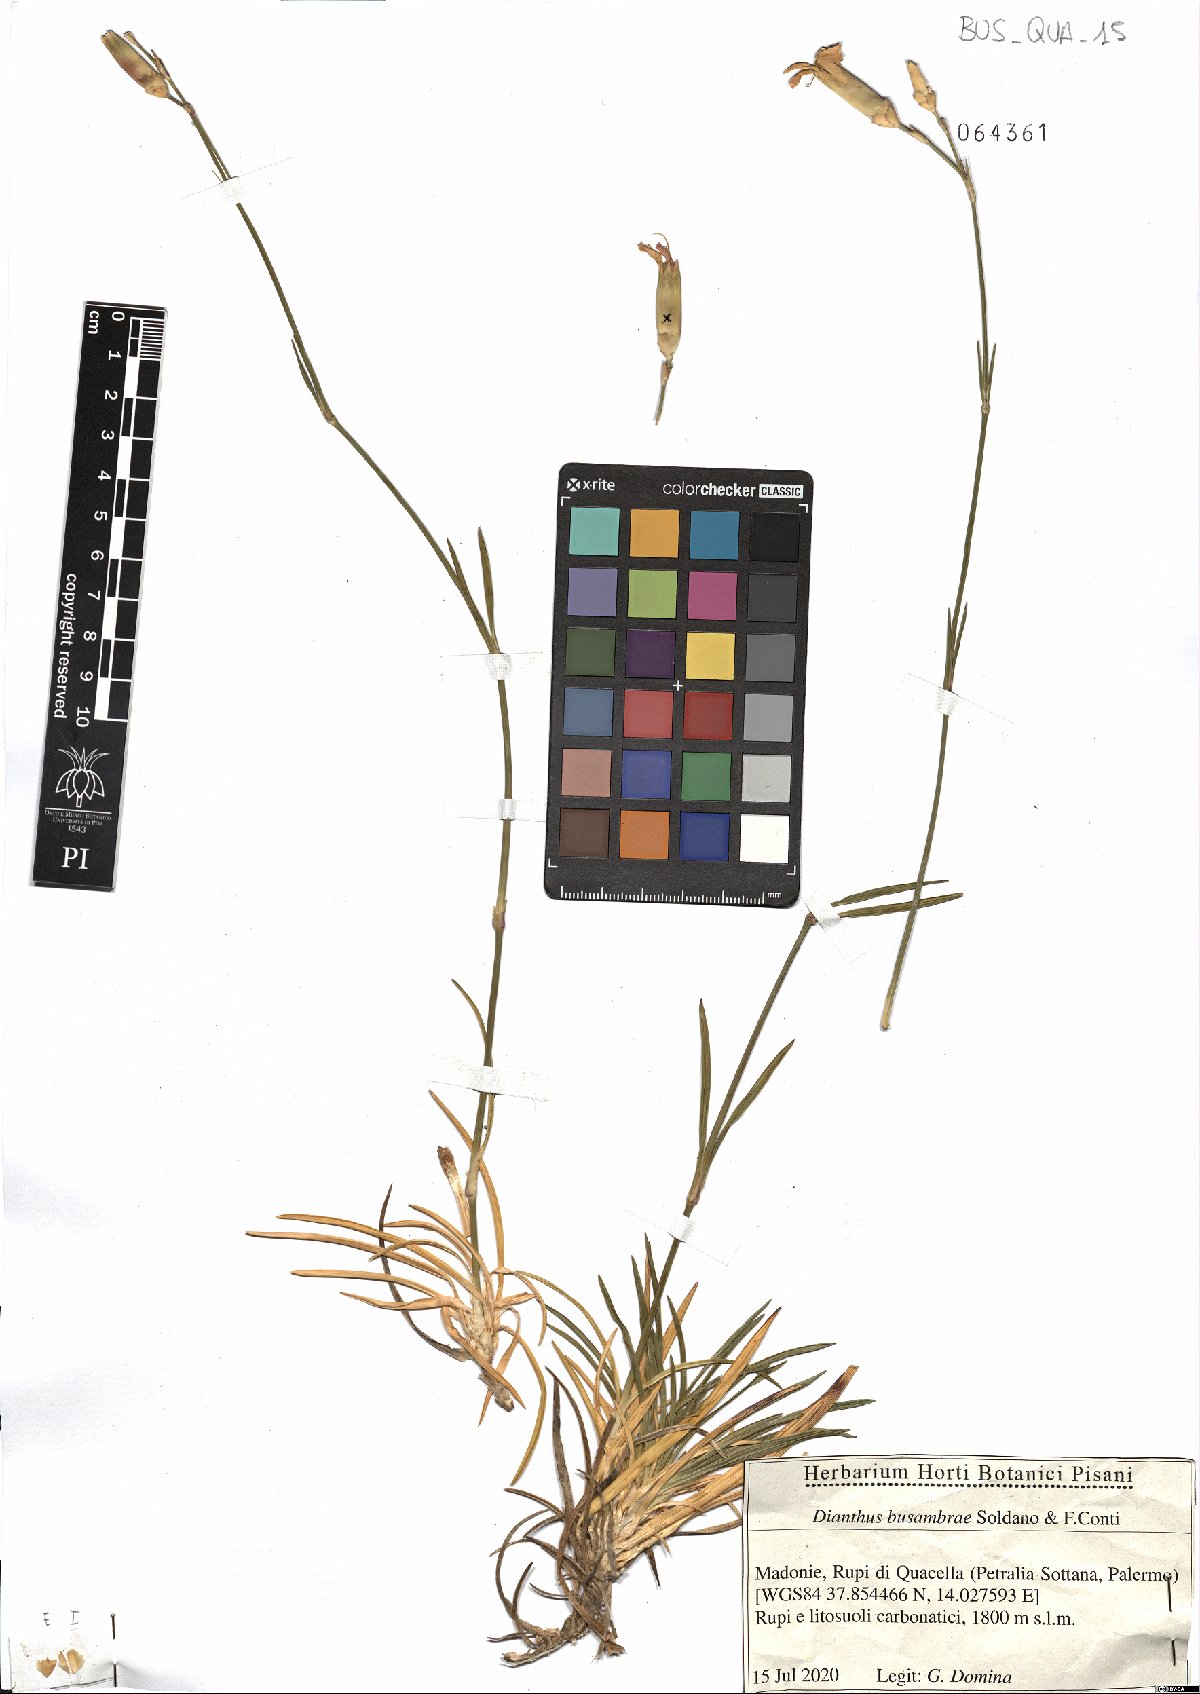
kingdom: Plantae
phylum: Tracheophyta
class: Magnoliopsida
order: Caryophyllales
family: Caryophyllaceae
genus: Dianthus
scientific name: Dianthus busambrae
